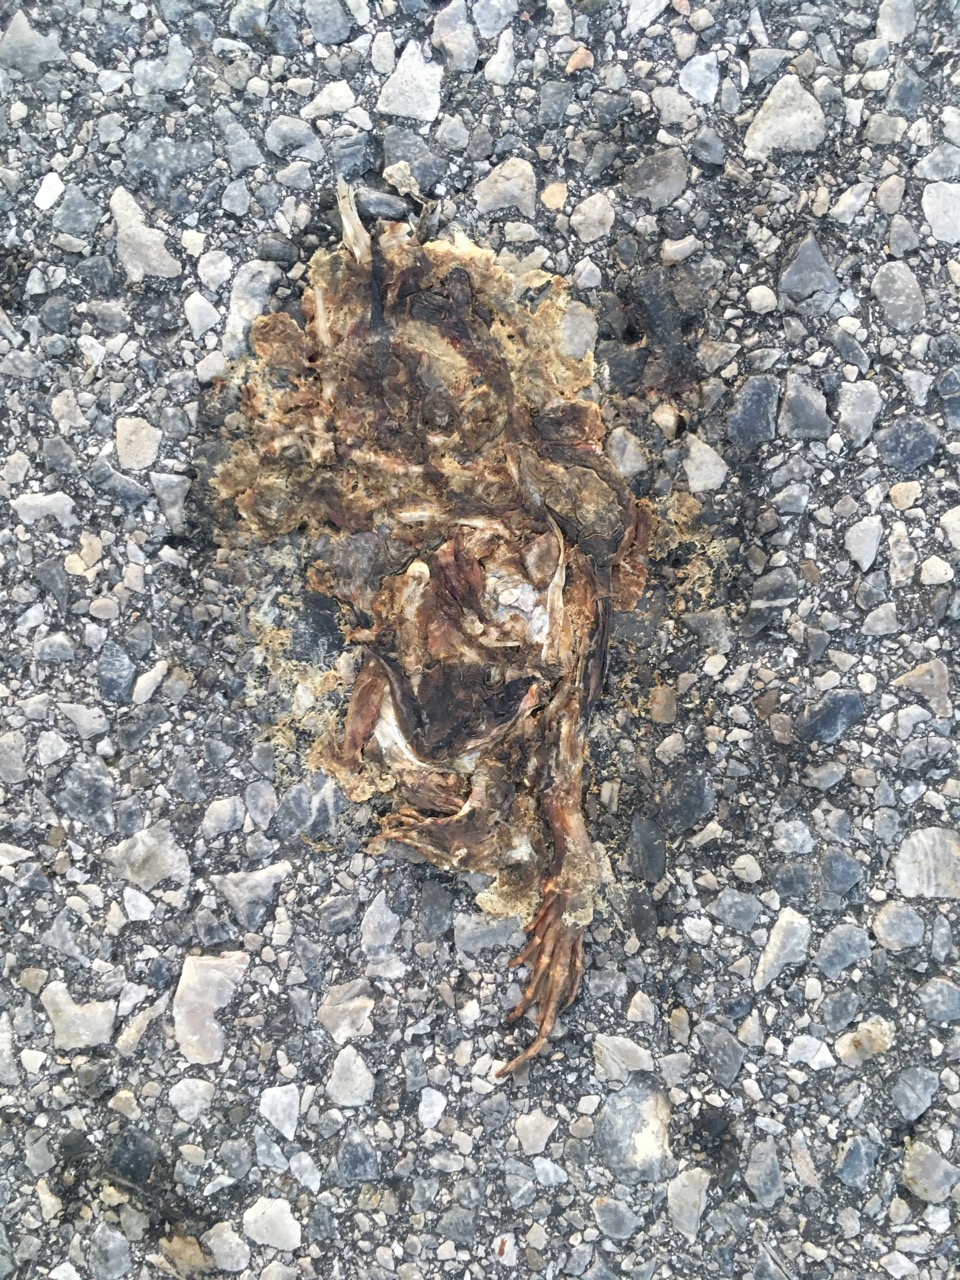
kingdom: Animalia
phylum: Chordata
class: Amphibia
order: Anura
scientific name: Anura
